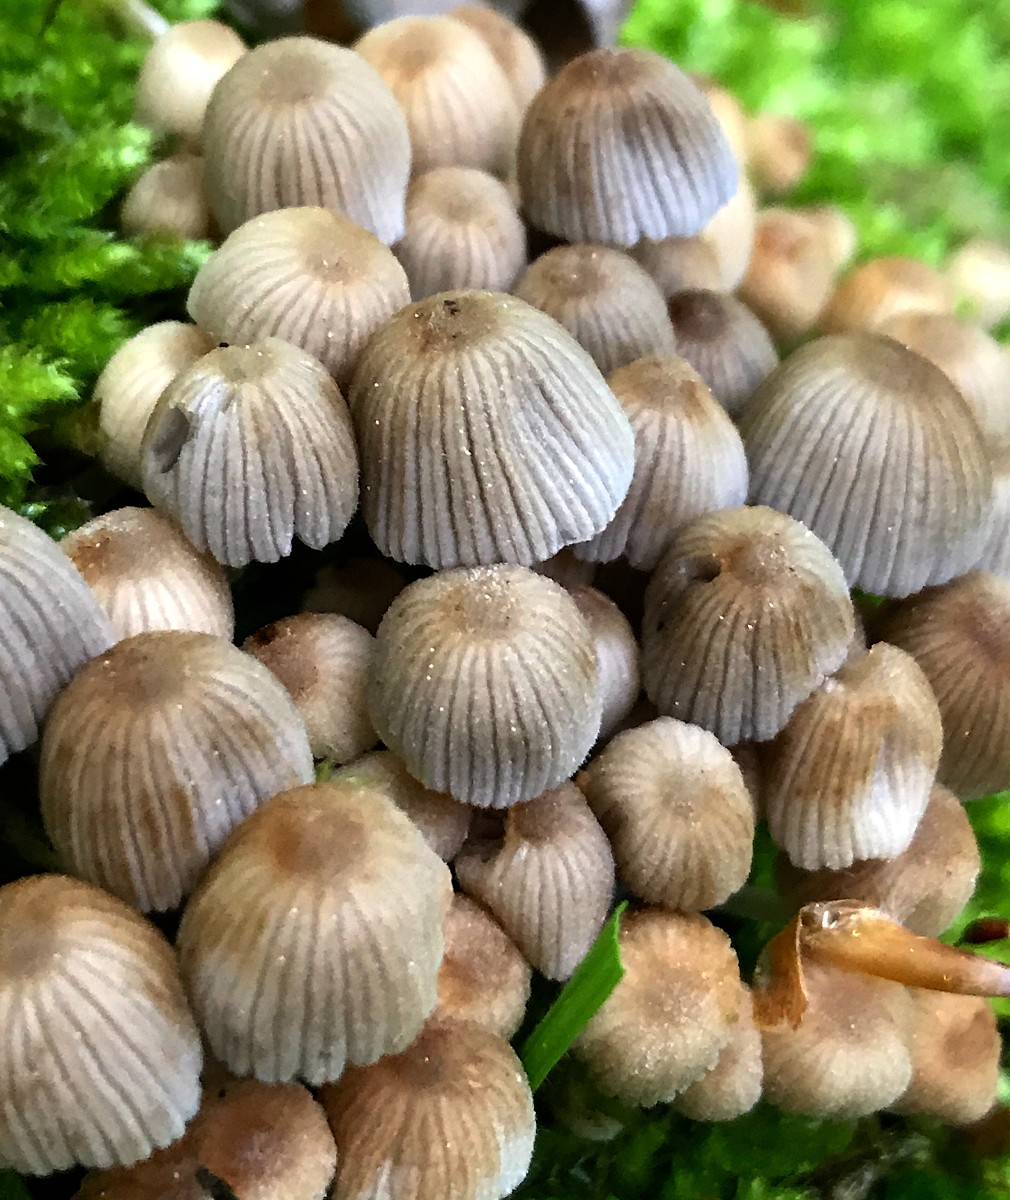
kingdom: Fungi
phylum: Basidiomycota
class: Agaricomycetes
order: Agaricales
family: Psathyrellaceae
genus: Coprinellus
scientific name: Coprinellus disseminatus
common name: bredsået blækhat
